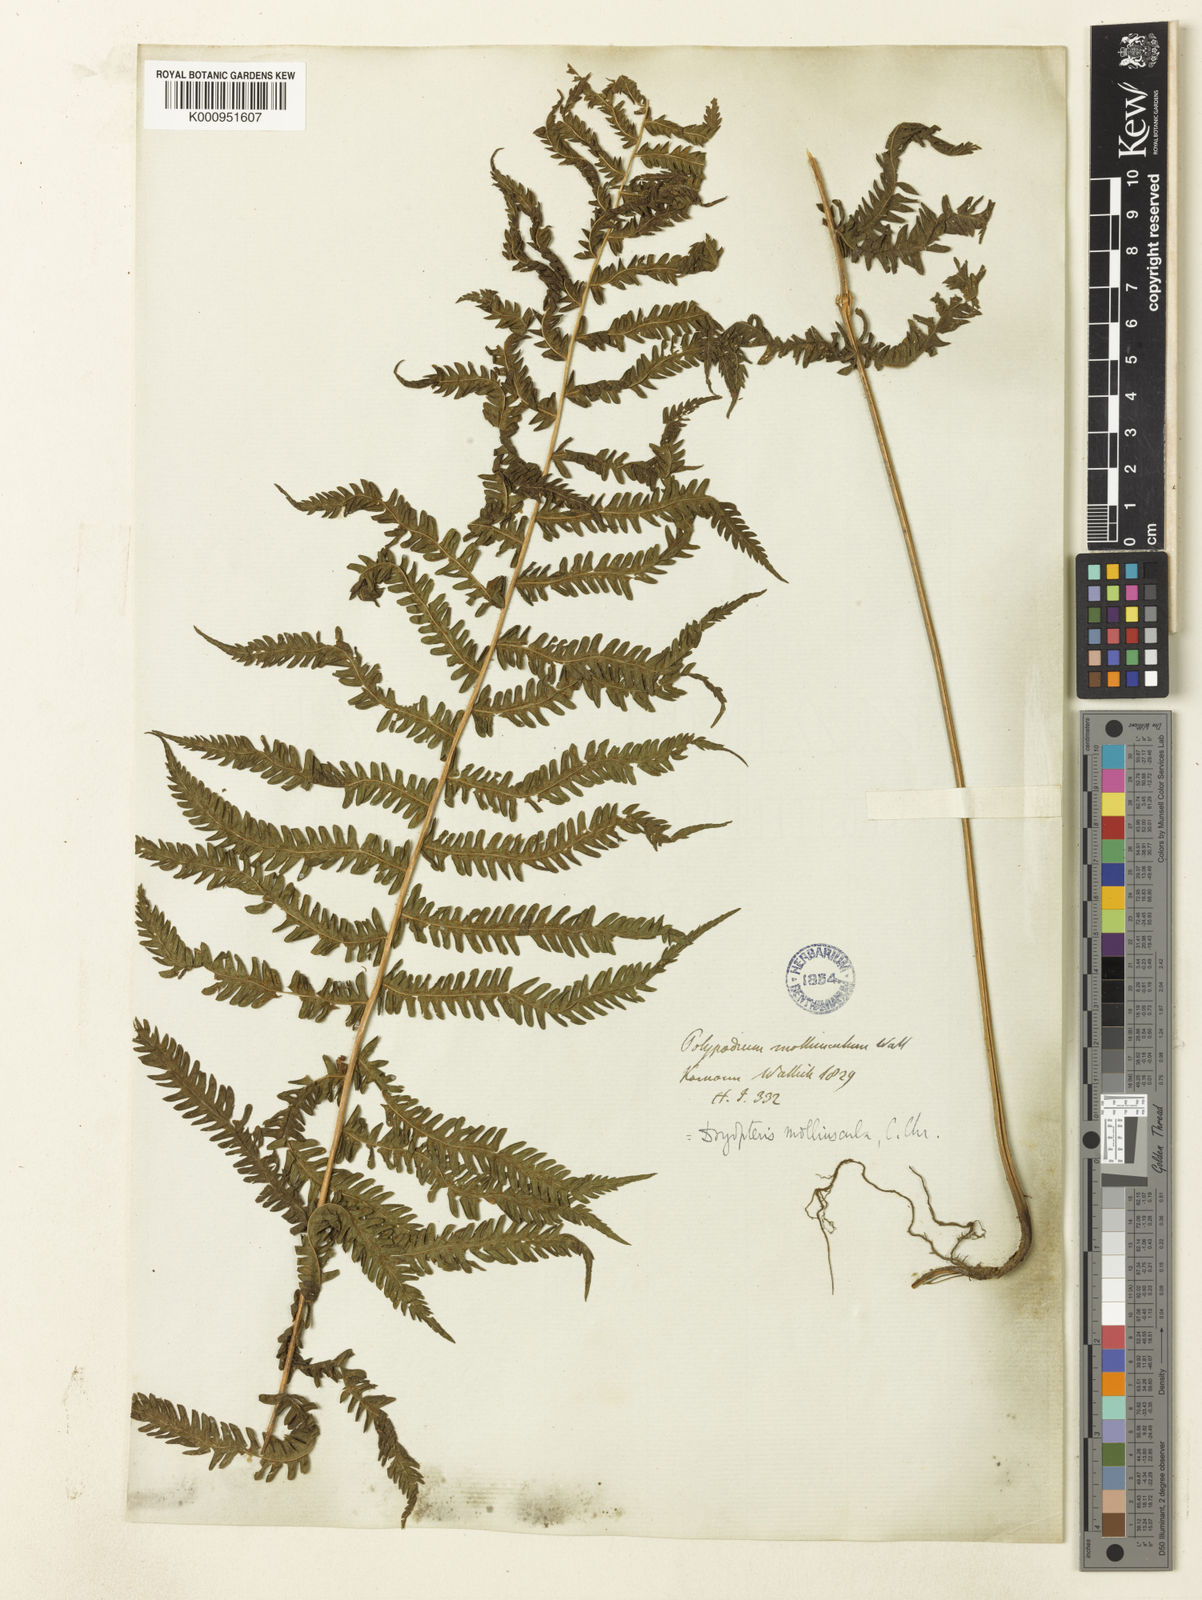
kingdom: Plantae
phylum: Tracheophyta
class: Polypodiopsida
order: Polypodiales
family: Thelypteridaceae
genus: Christella
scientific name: Christella procera
